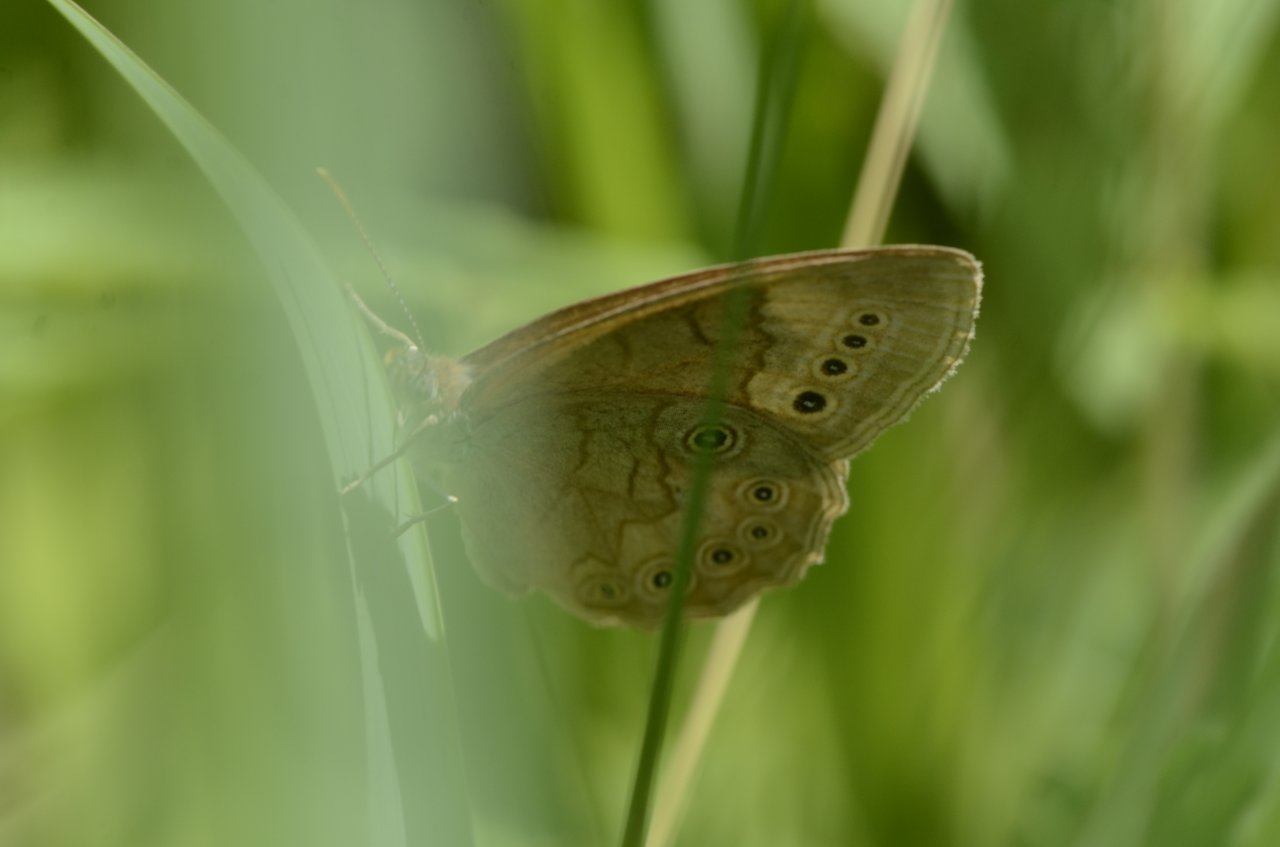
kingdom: Animalia
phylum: Arthropoda
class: Insecta
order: Lepidoptera
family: Nymphalidae
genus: Lethe
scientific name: Lethe eurydice
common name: Eyed Brown
